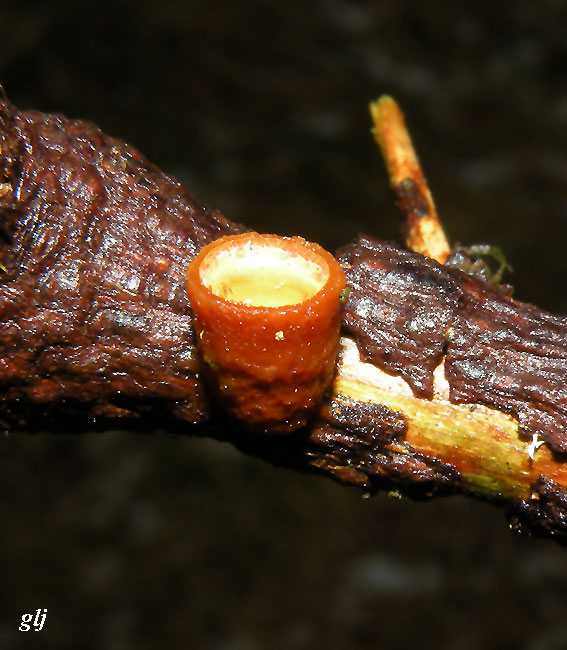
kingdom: Fungi
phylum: Basidiomycota
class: Agaricomycetes
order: Agaricales
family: Nidulariaceae
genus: Crucibulum
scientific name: Crucibulum crucibuliforme
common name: krukkesvamp
